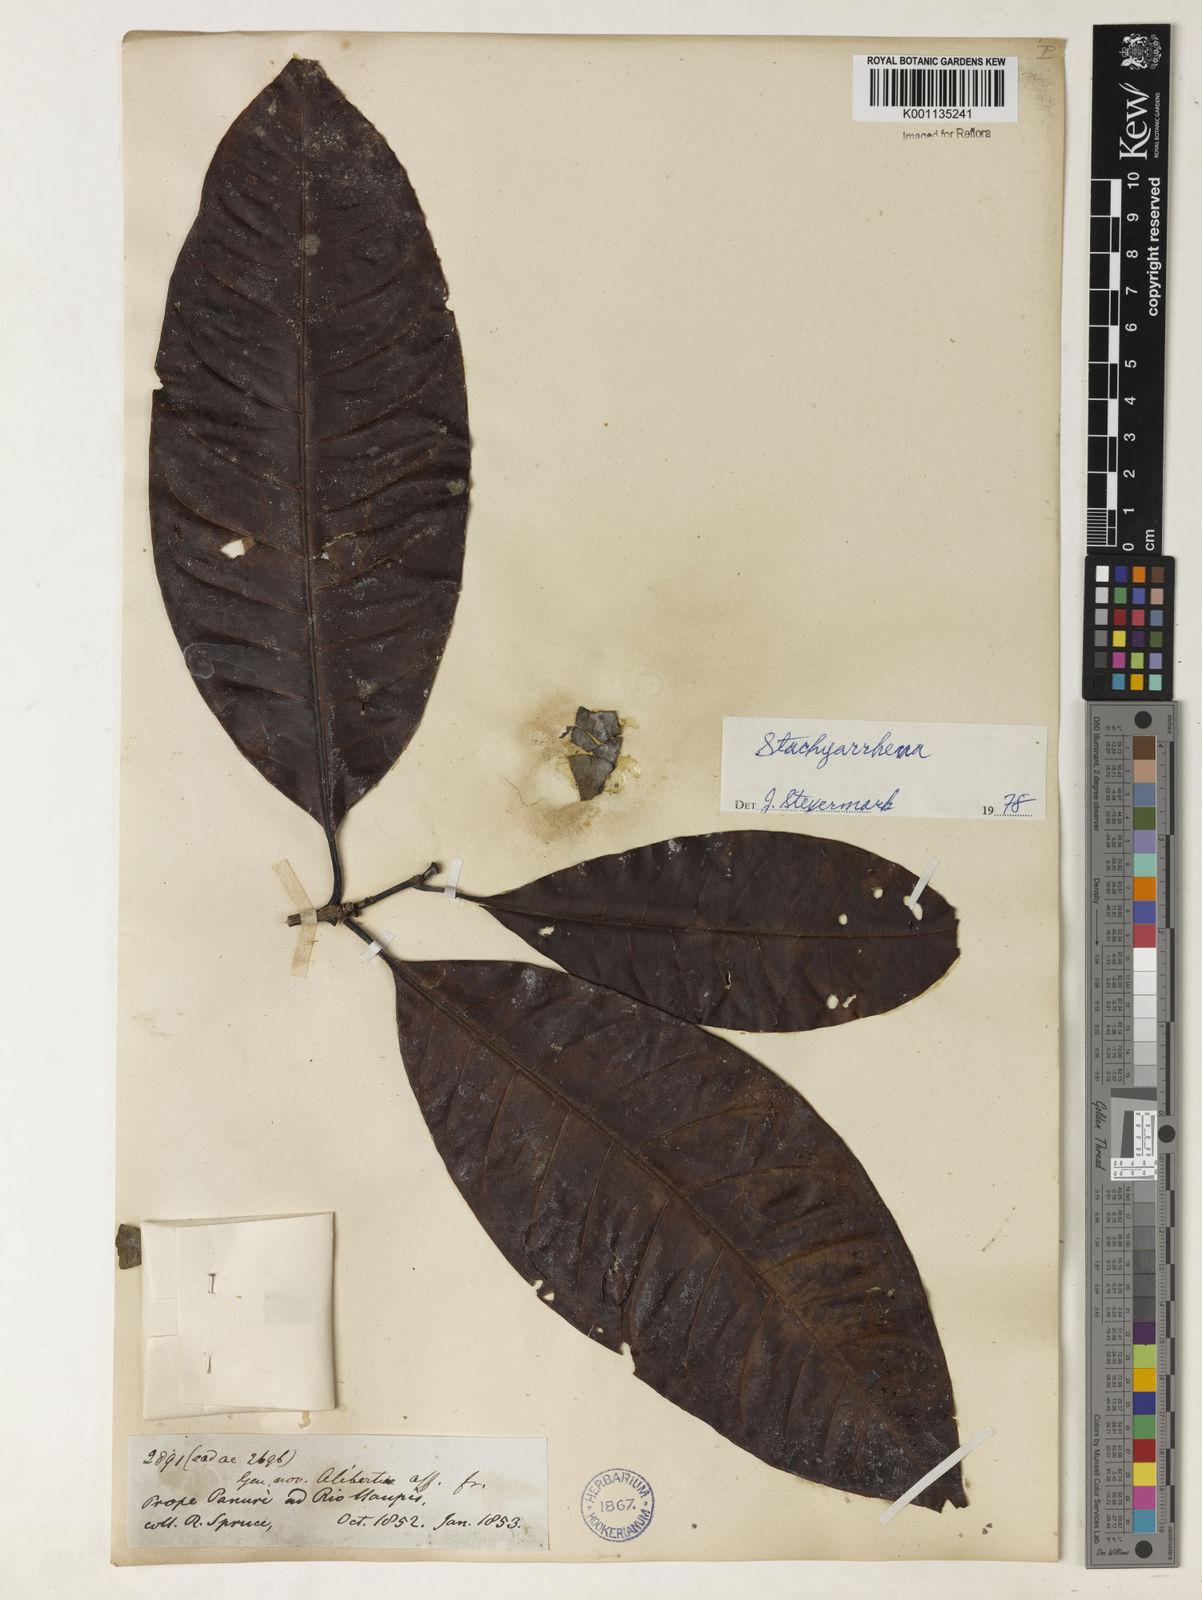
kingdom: Plantae
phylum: Tracheophyta
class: Magnoliopsida
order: Gentianales
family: Rubiaceae
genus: Stachyarrhena
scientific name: Stachyarrhena
